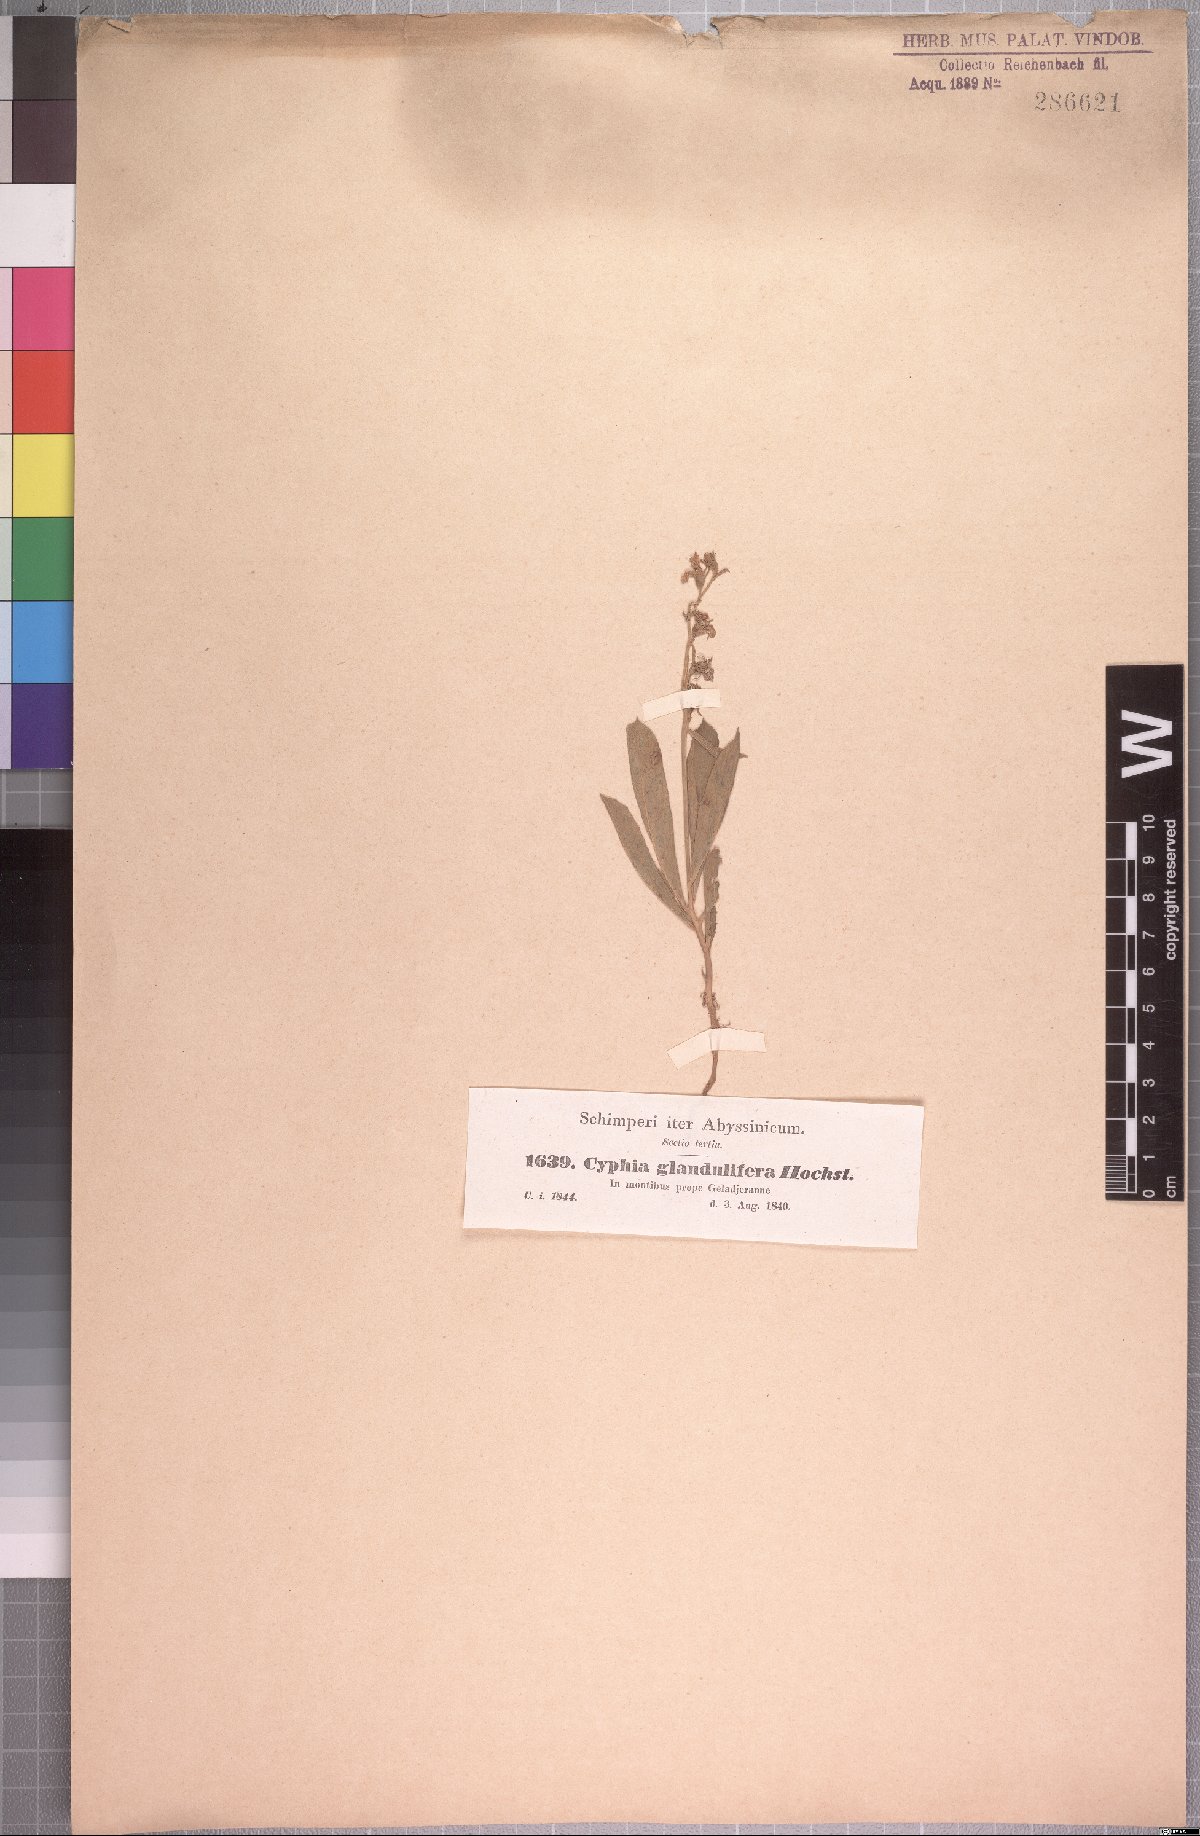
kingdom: Plantae
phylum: Tracheophyta
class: Magnoliopsida
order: Asterales
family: Campanulaceae
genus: Cyphia
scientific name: Cyphia glandulifera
